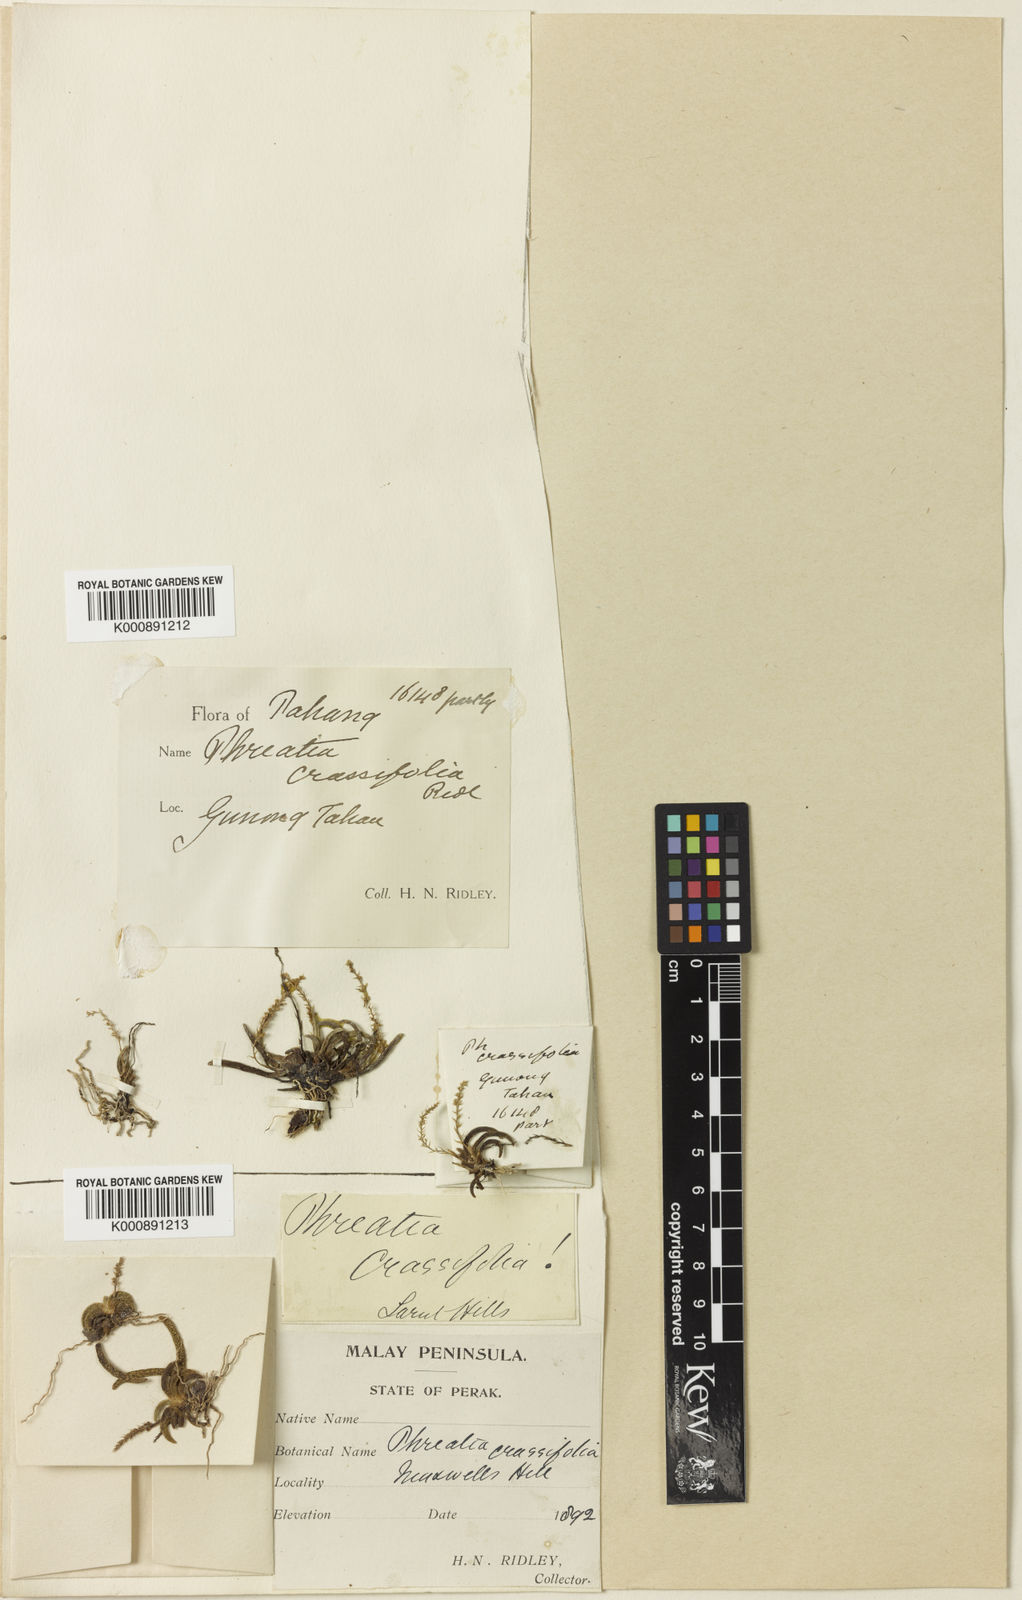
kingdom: Plantae
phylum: Tracheophyta
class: Liliopsida
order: Asparagales
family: Orchidaceae
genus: Phreatia
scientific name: Phreatia crassifolia
